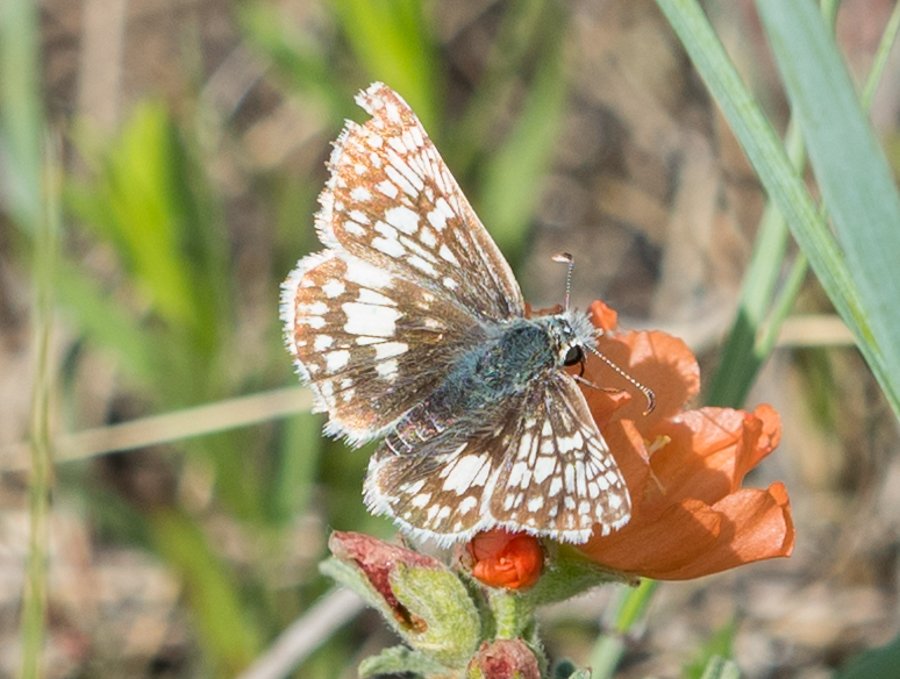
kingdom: Animalia
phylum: Arthropoda
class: Insecta
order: Lepidoptera
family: Hesperiidae
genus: Pyrgus
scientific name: Pyrgus communis
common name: Common Checkered-Skipper
